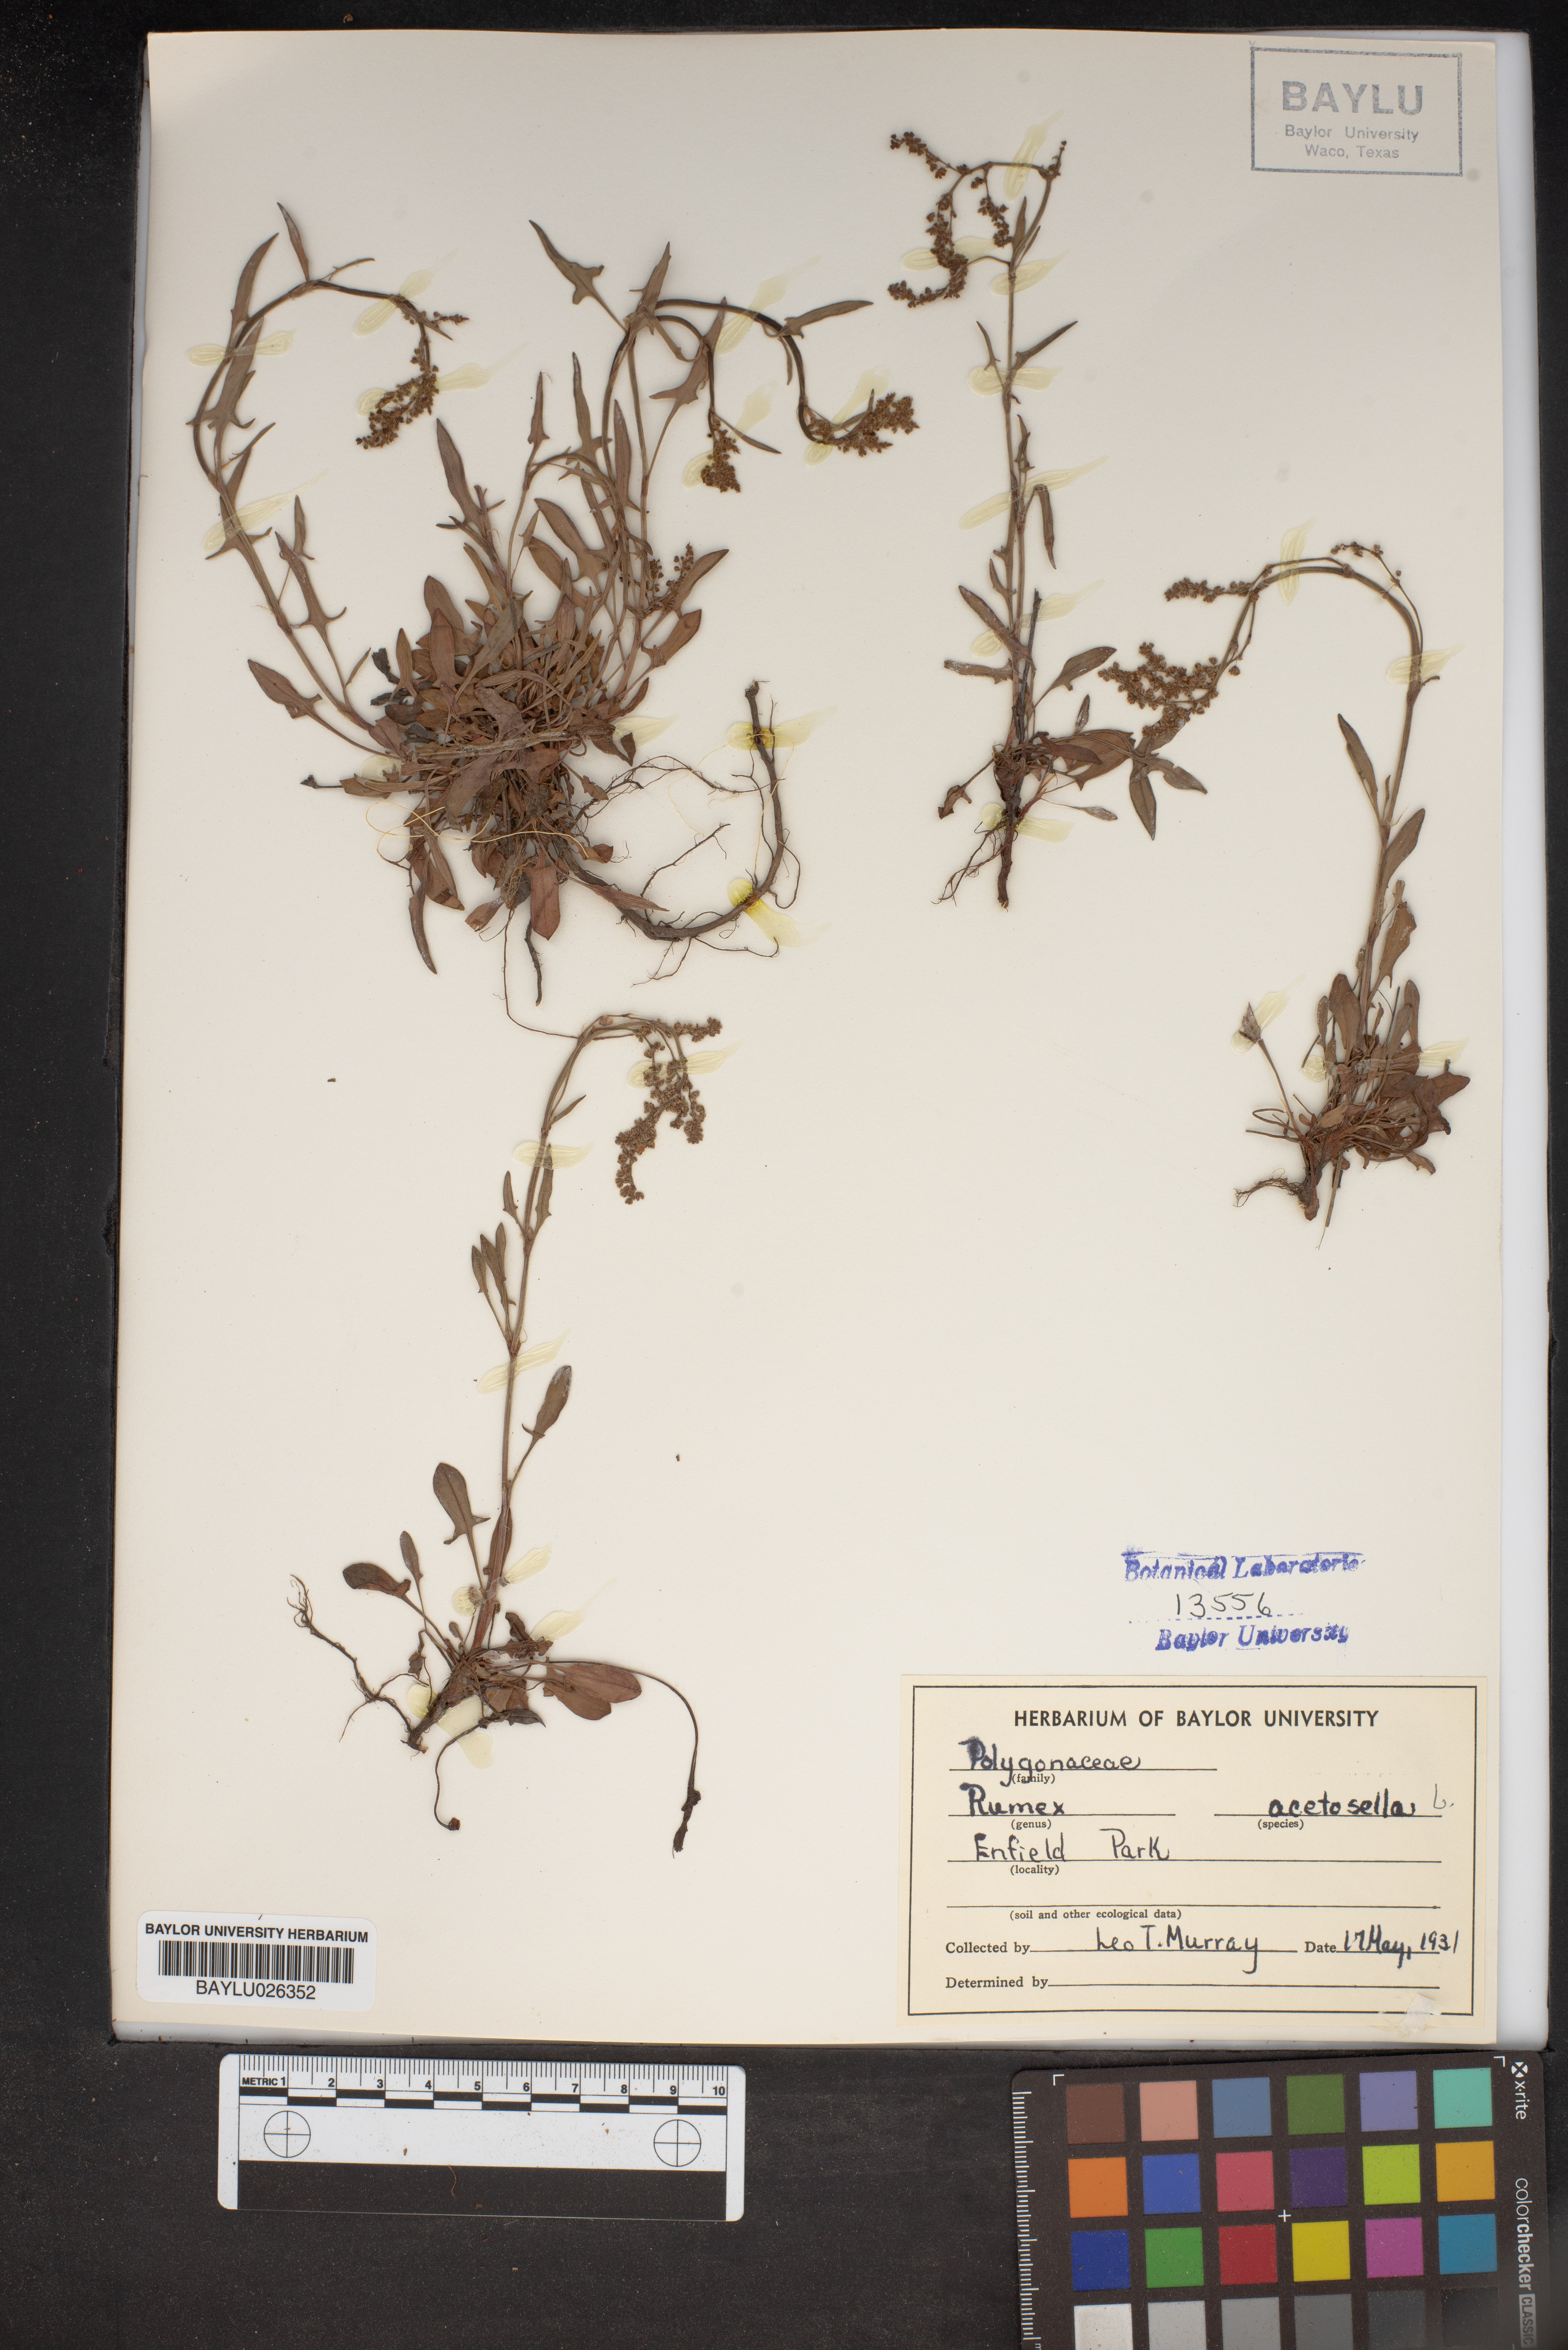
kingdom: Plantae
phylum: Tracheophyta
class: Magnoliopsida
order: Caryophyllales
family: Polygonaceae
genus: Rumex
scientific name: Rumex acetosella
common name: Common sheep sorrel
